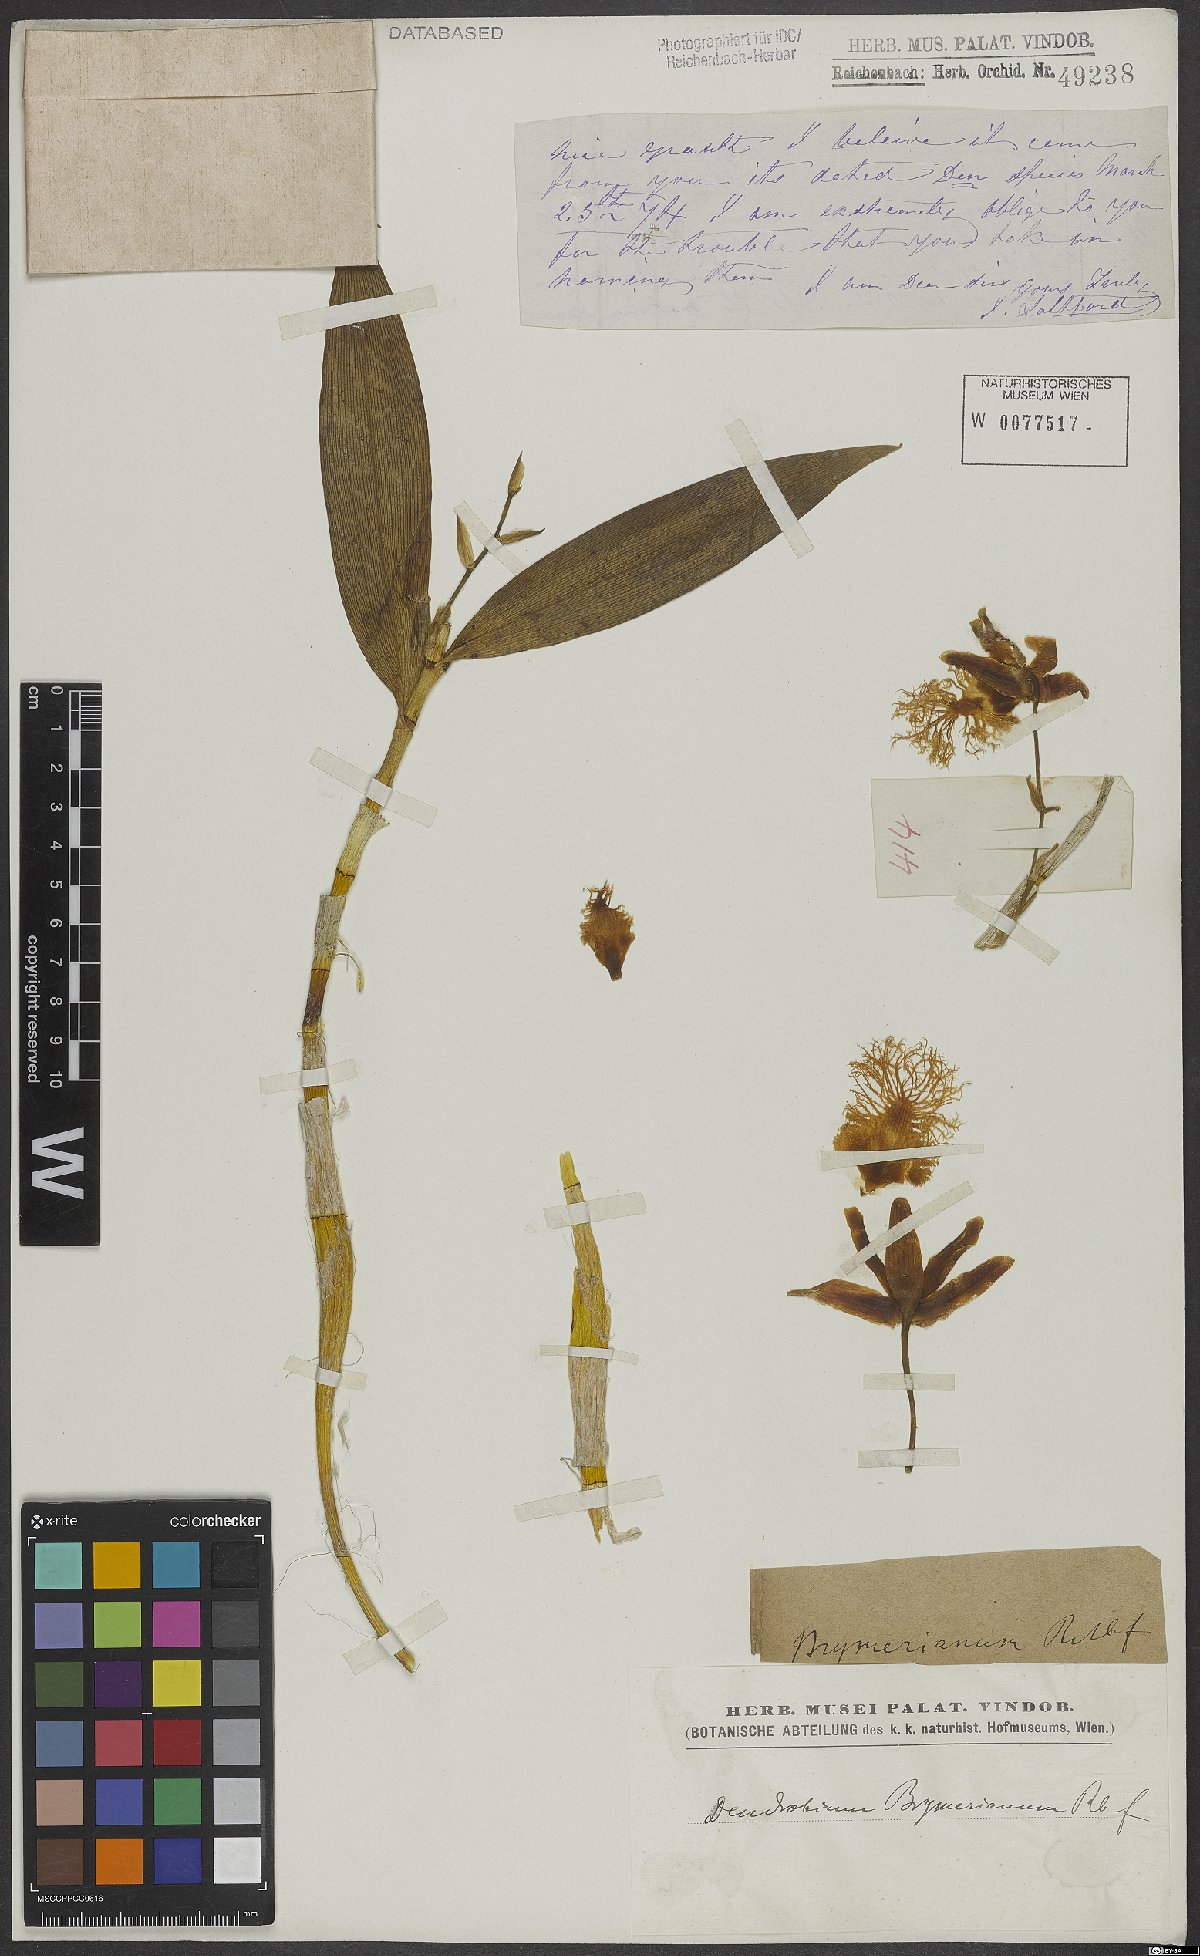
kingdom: Plantae
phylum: Tracheophyta
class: Liliopsida
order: Asparagales
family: Orchidaceae
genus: Dendrobium
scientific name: Dendrobium brymerianum
